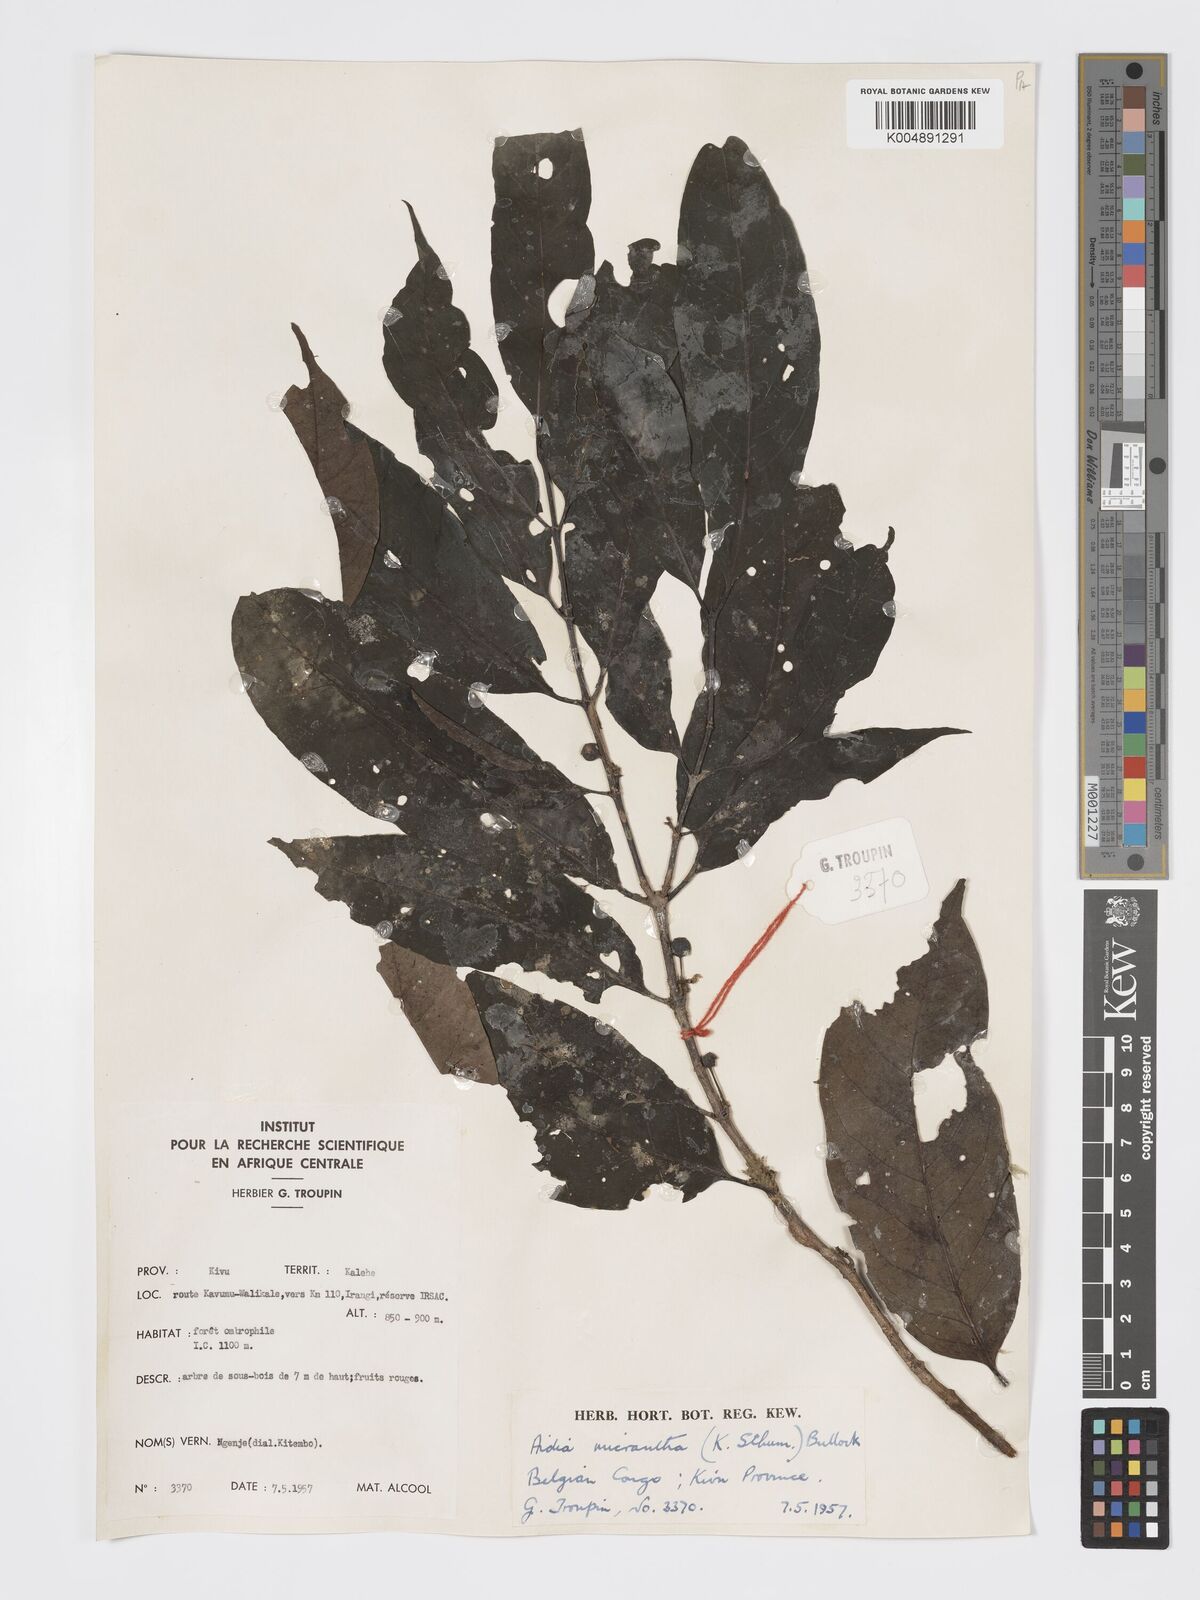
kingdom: Plantae
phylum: Tracheophyta
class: Magnoliopsida
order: Gentianales
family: Rubiaceae
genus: Aidia
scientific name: Aidia micrantha
